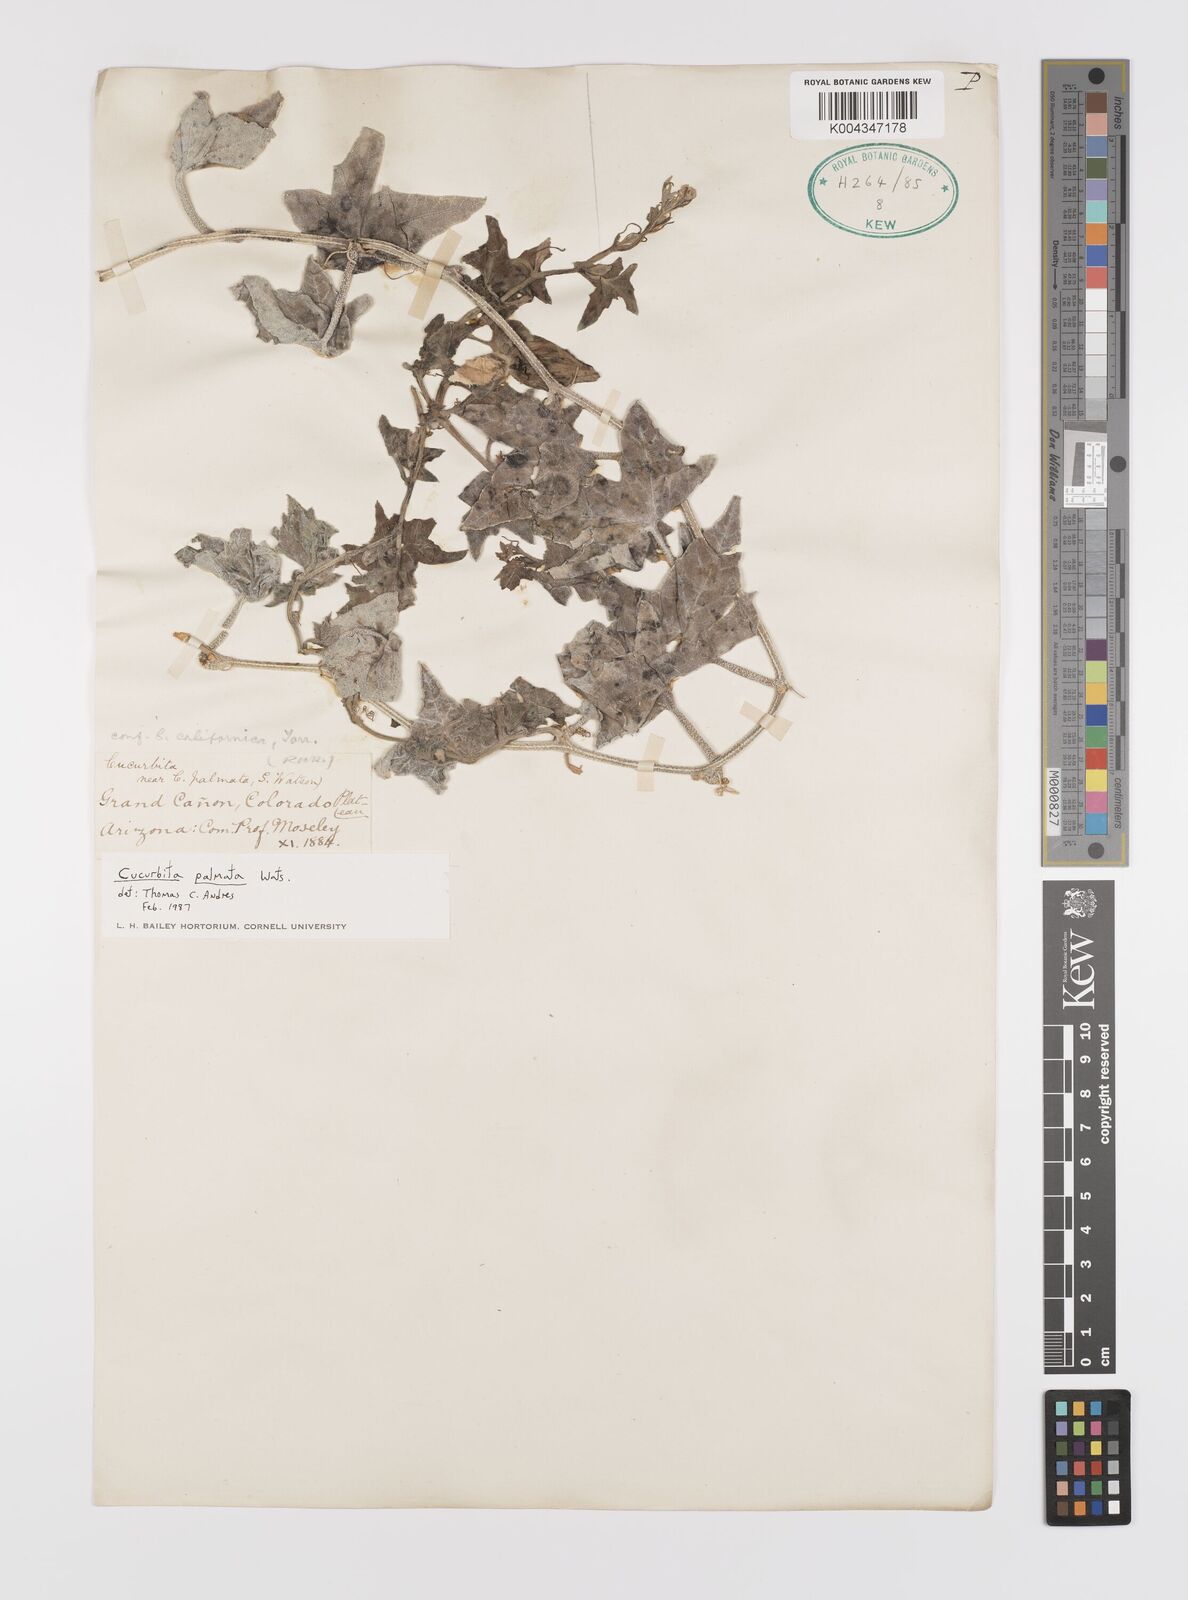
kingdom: Plantae
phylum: Tracheophyta
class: Magnoliopsida
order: Cucurbitales
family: Cucurbitaceae
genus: Cucurbita
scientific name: Cucurbita palmata
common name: Coyote-melon
